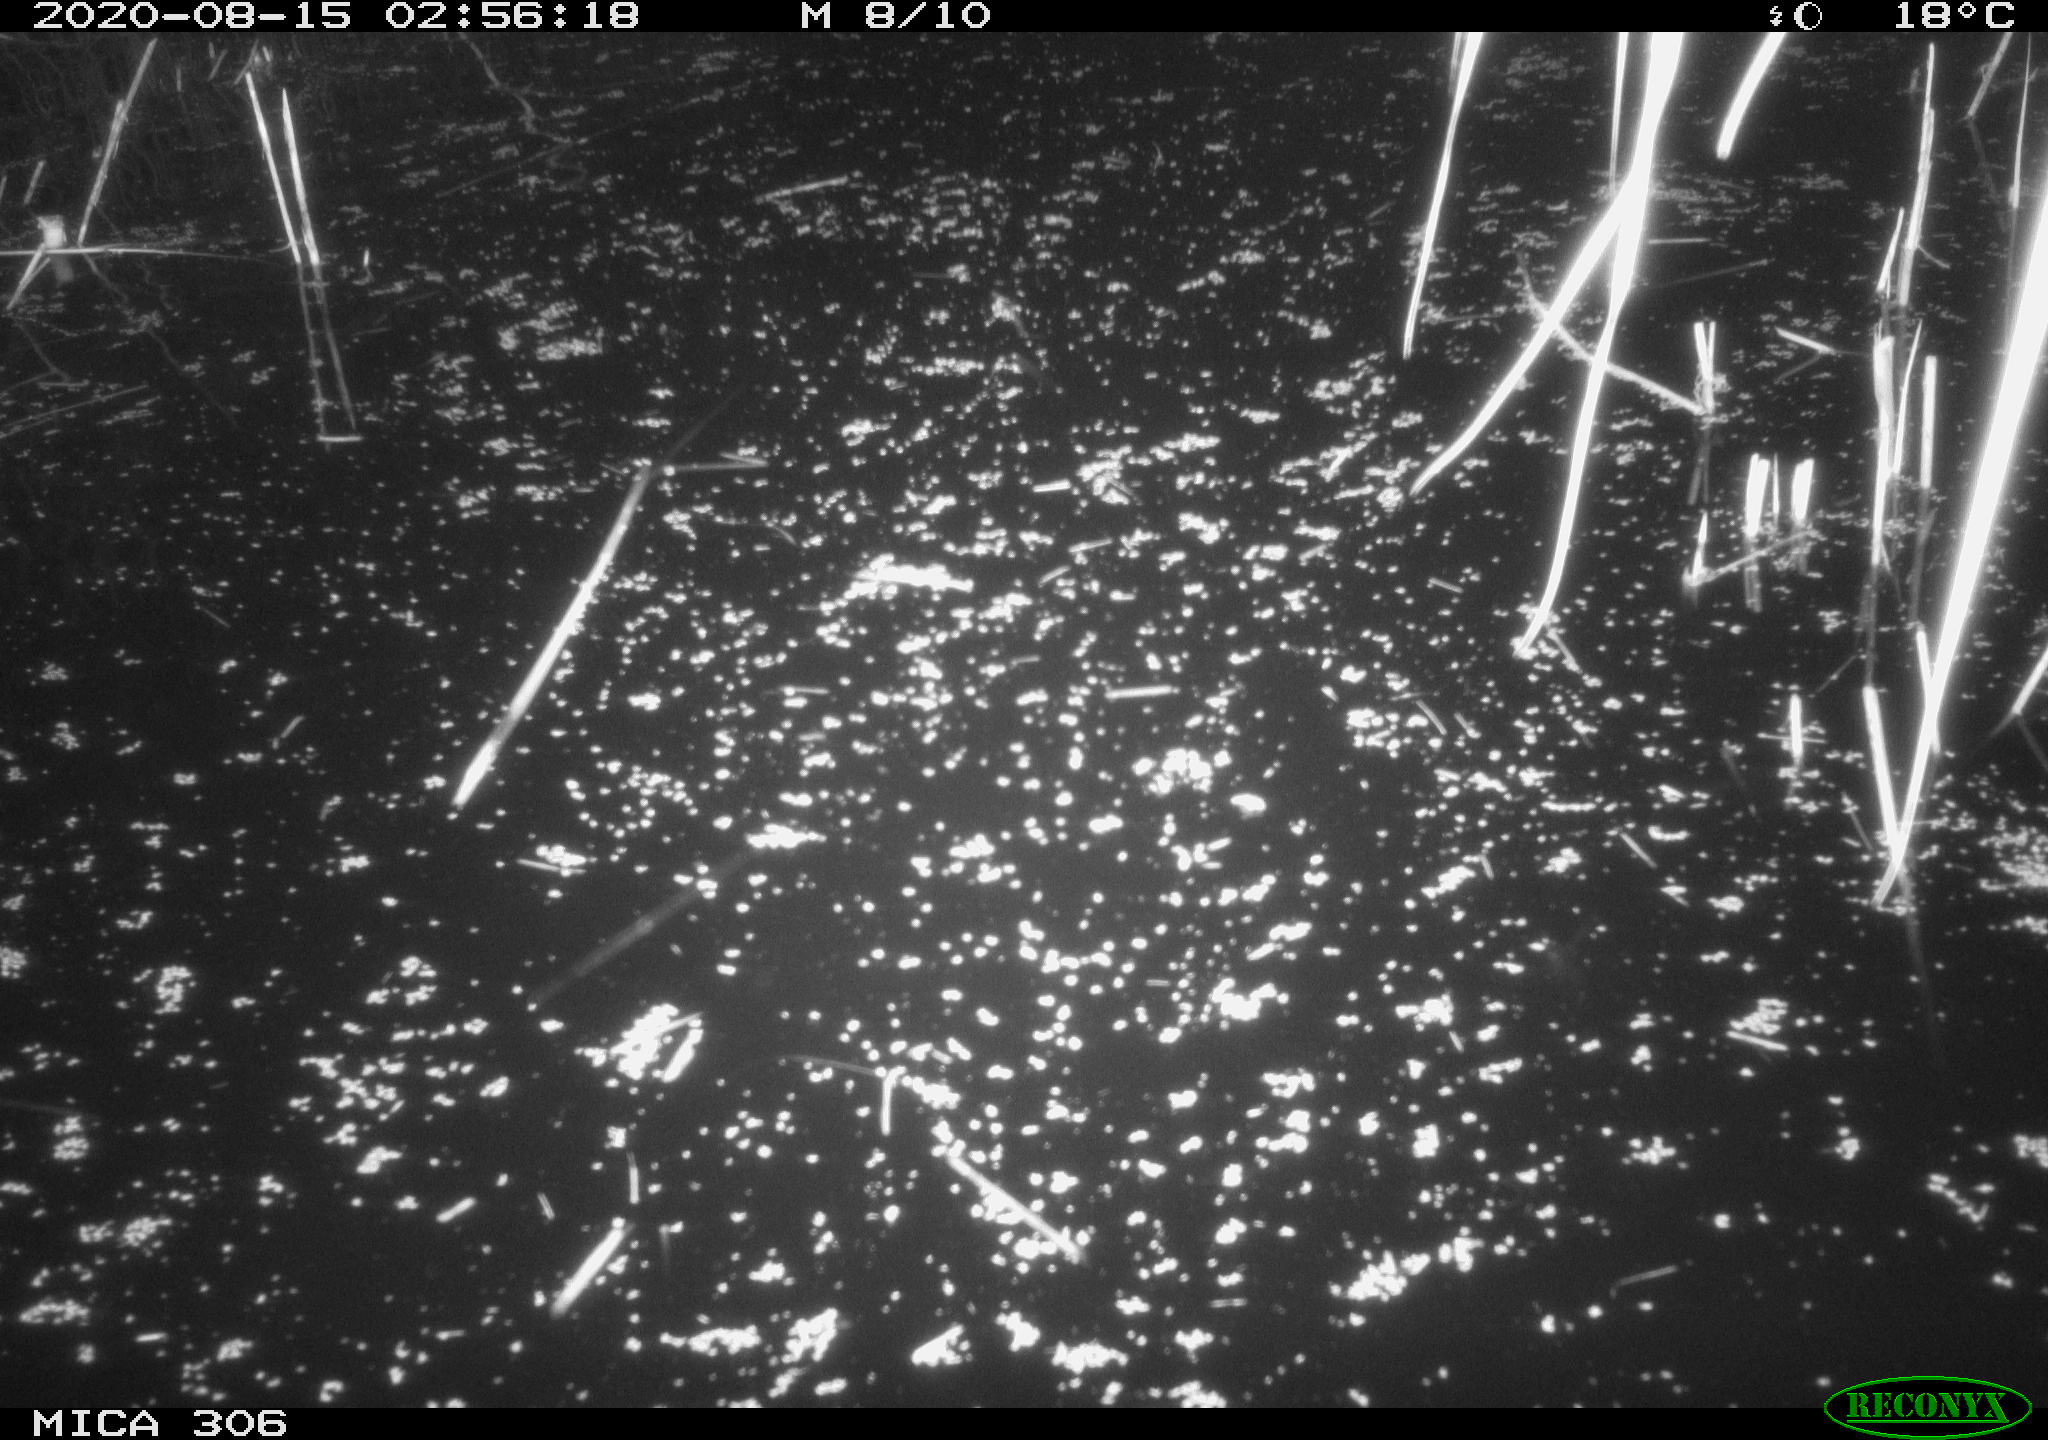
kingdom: Animalia
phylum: Chordata
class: Mammalia
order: Rodentia
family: Muridae
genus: Rattus
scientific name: Rattus norvegicus
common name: Brown rat
